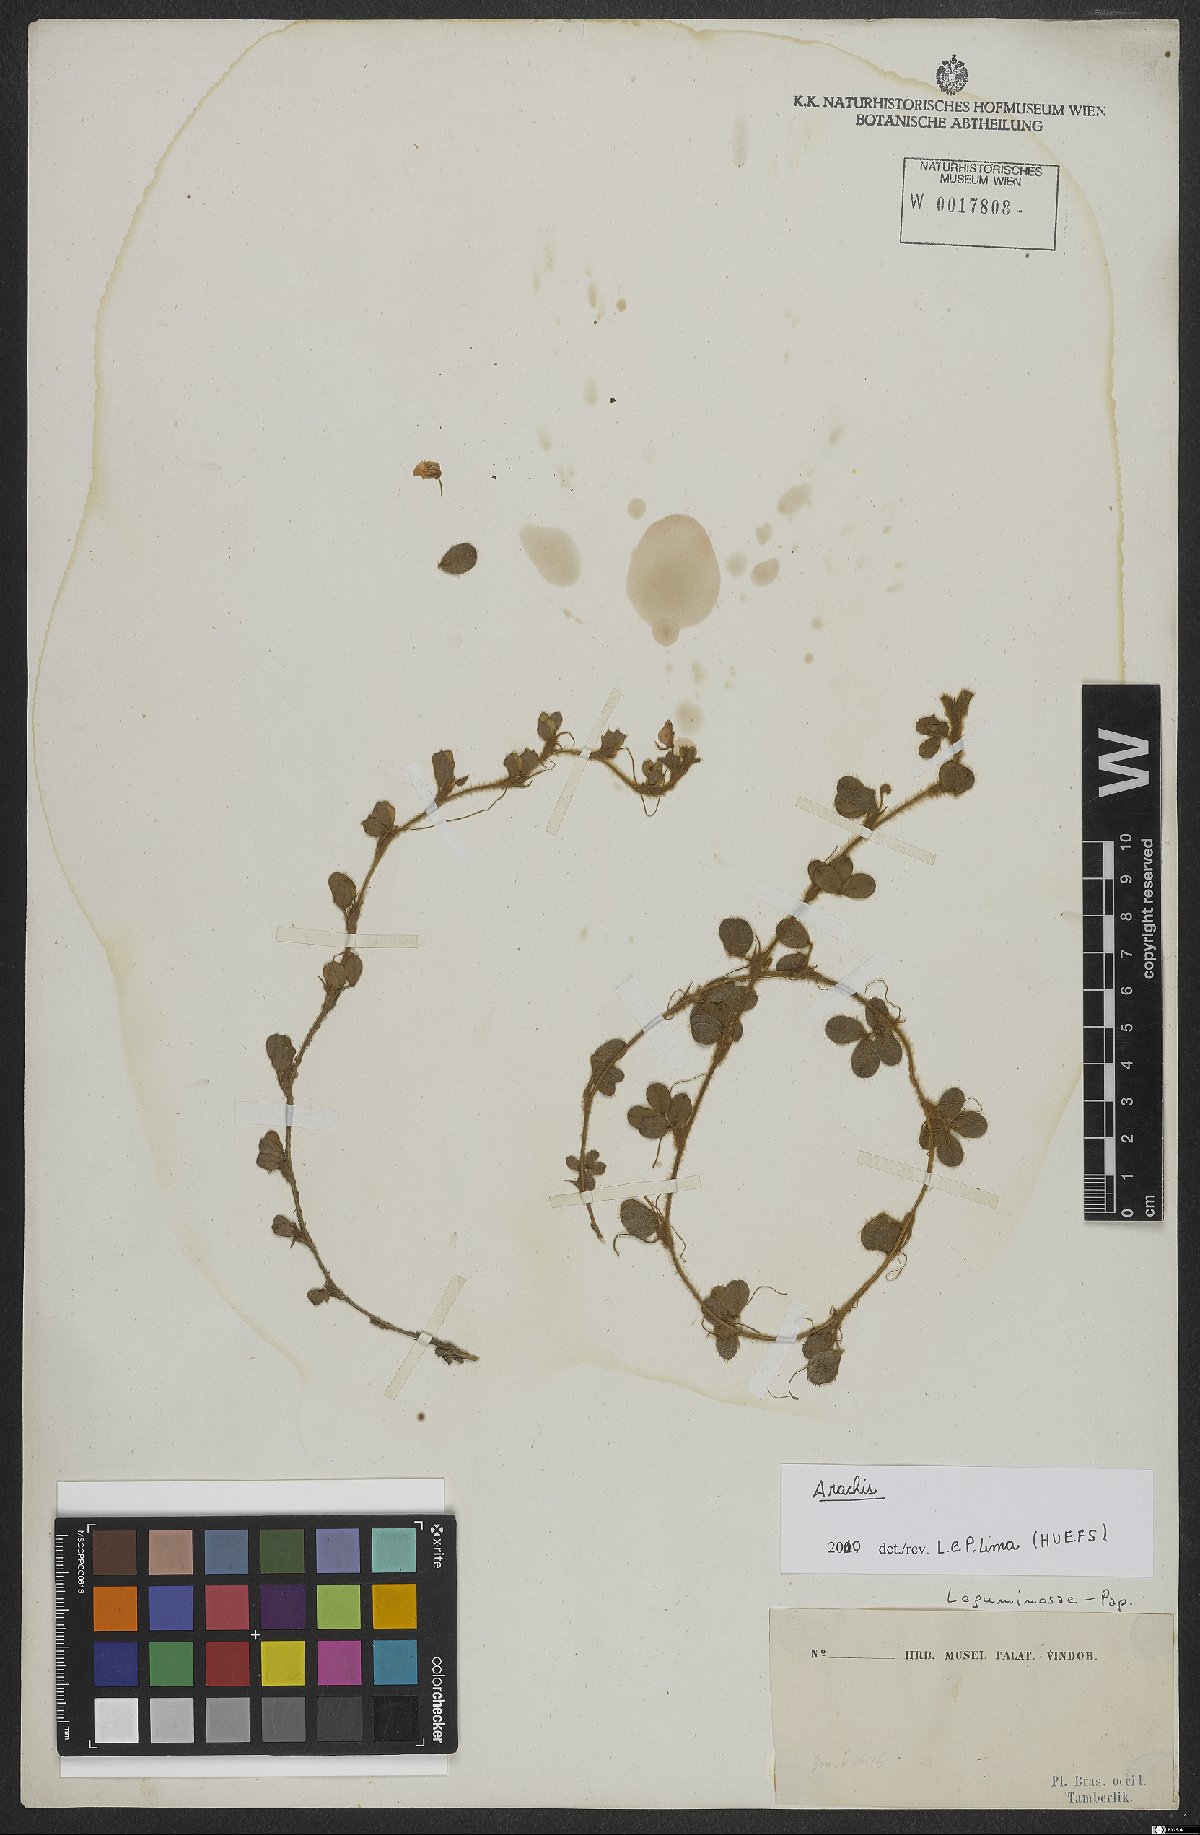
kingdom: Plantae
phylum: Tracheophyta
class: Magnoliopsida
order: Fabales
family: Fabaceae
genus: Arachis
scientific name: Arachis
